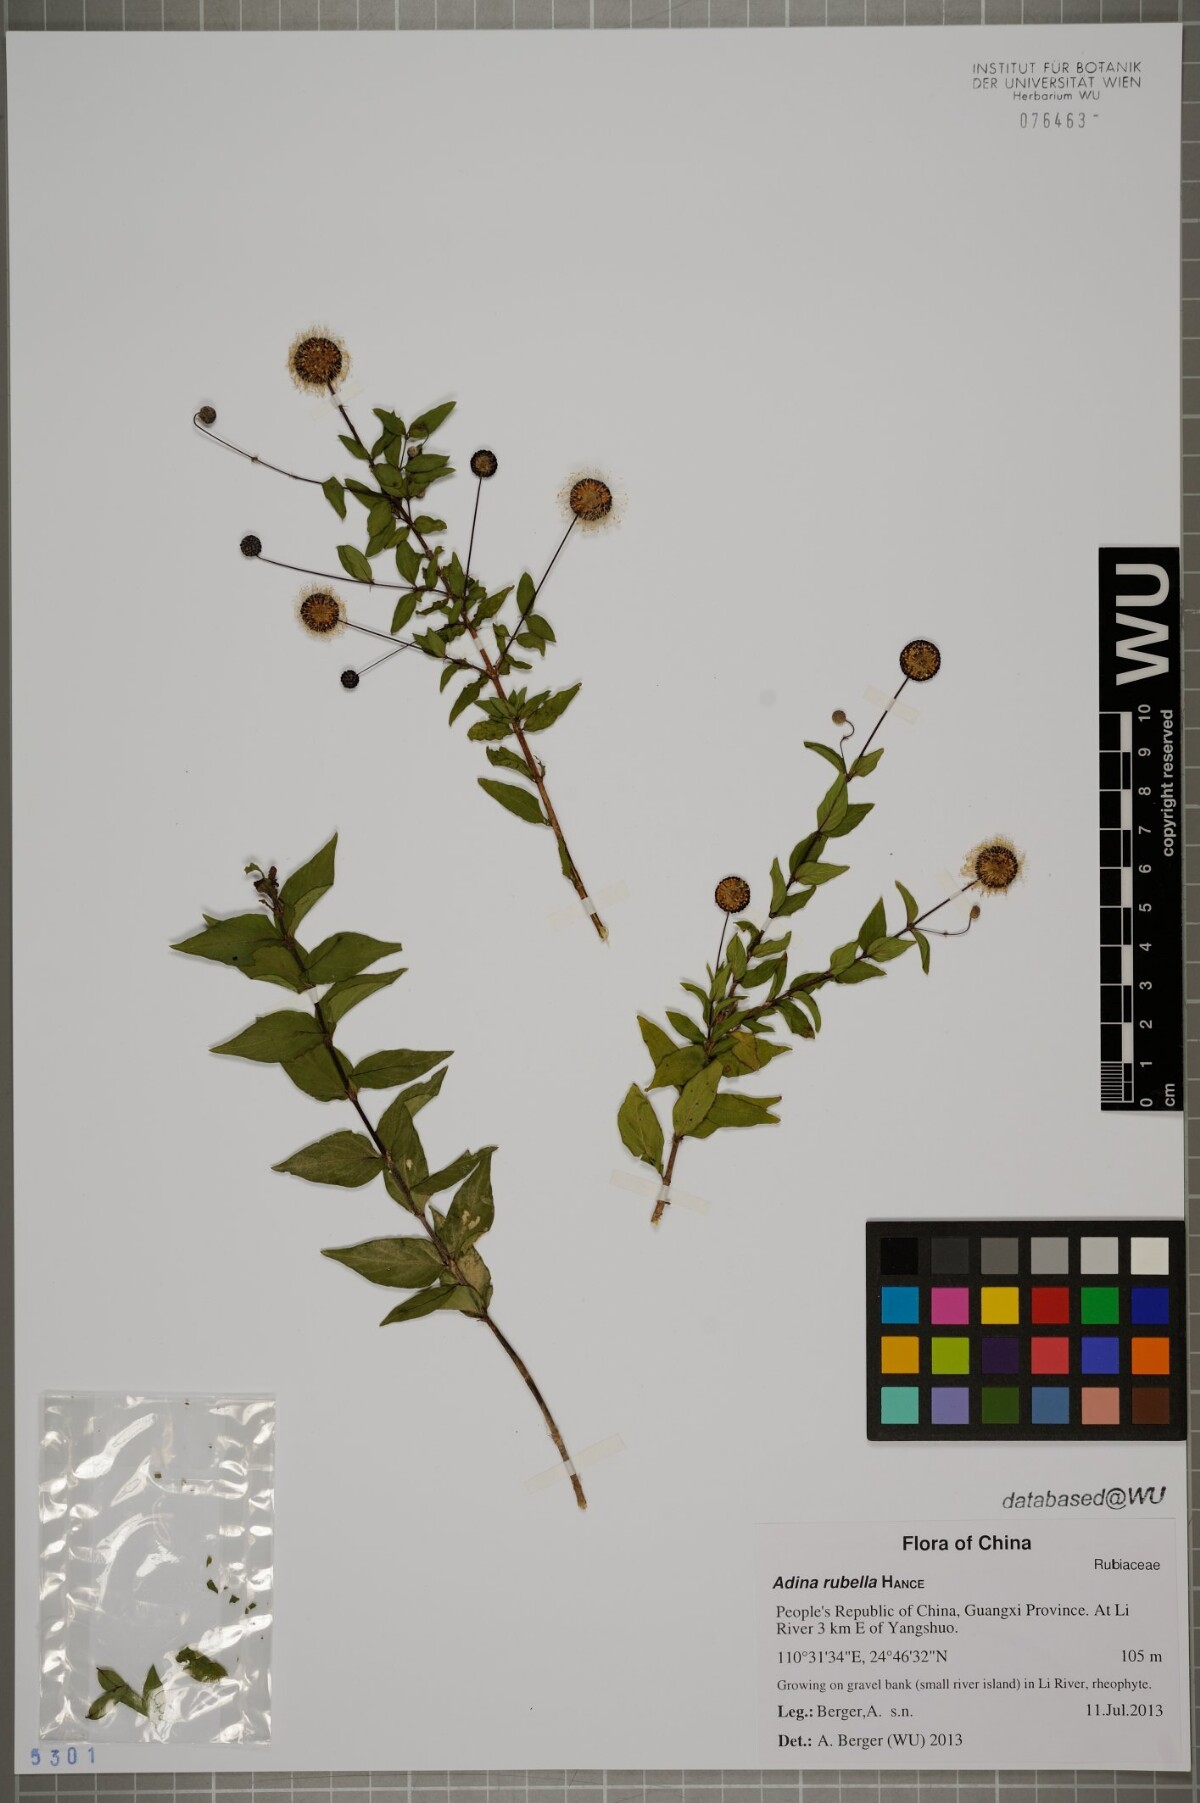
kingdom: Plantae
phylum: Tracheophyta
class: Magnoliopsida
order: Gentianales
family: Rubiaceae
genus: Adina
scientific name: Adina rubella
